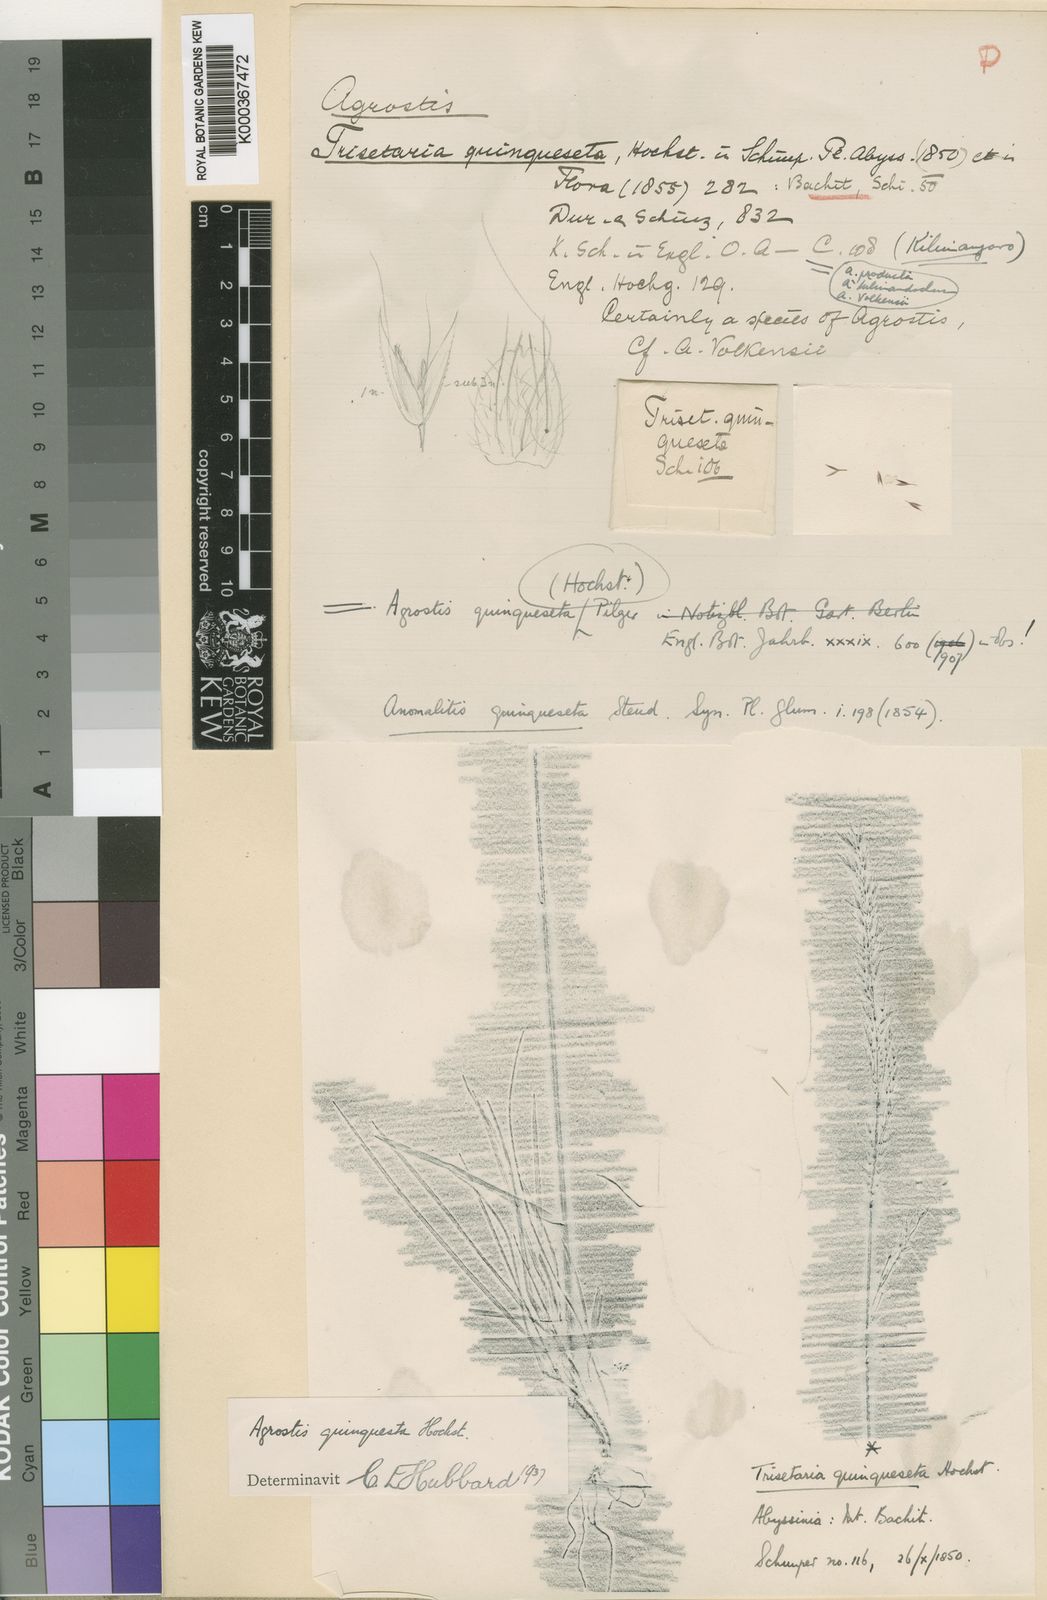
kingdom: Plantae
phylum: Tracheophyta
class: Liliopsida
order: Poales
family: Poaceae
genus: Agrostis
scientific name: Agrostis quinqueseta
